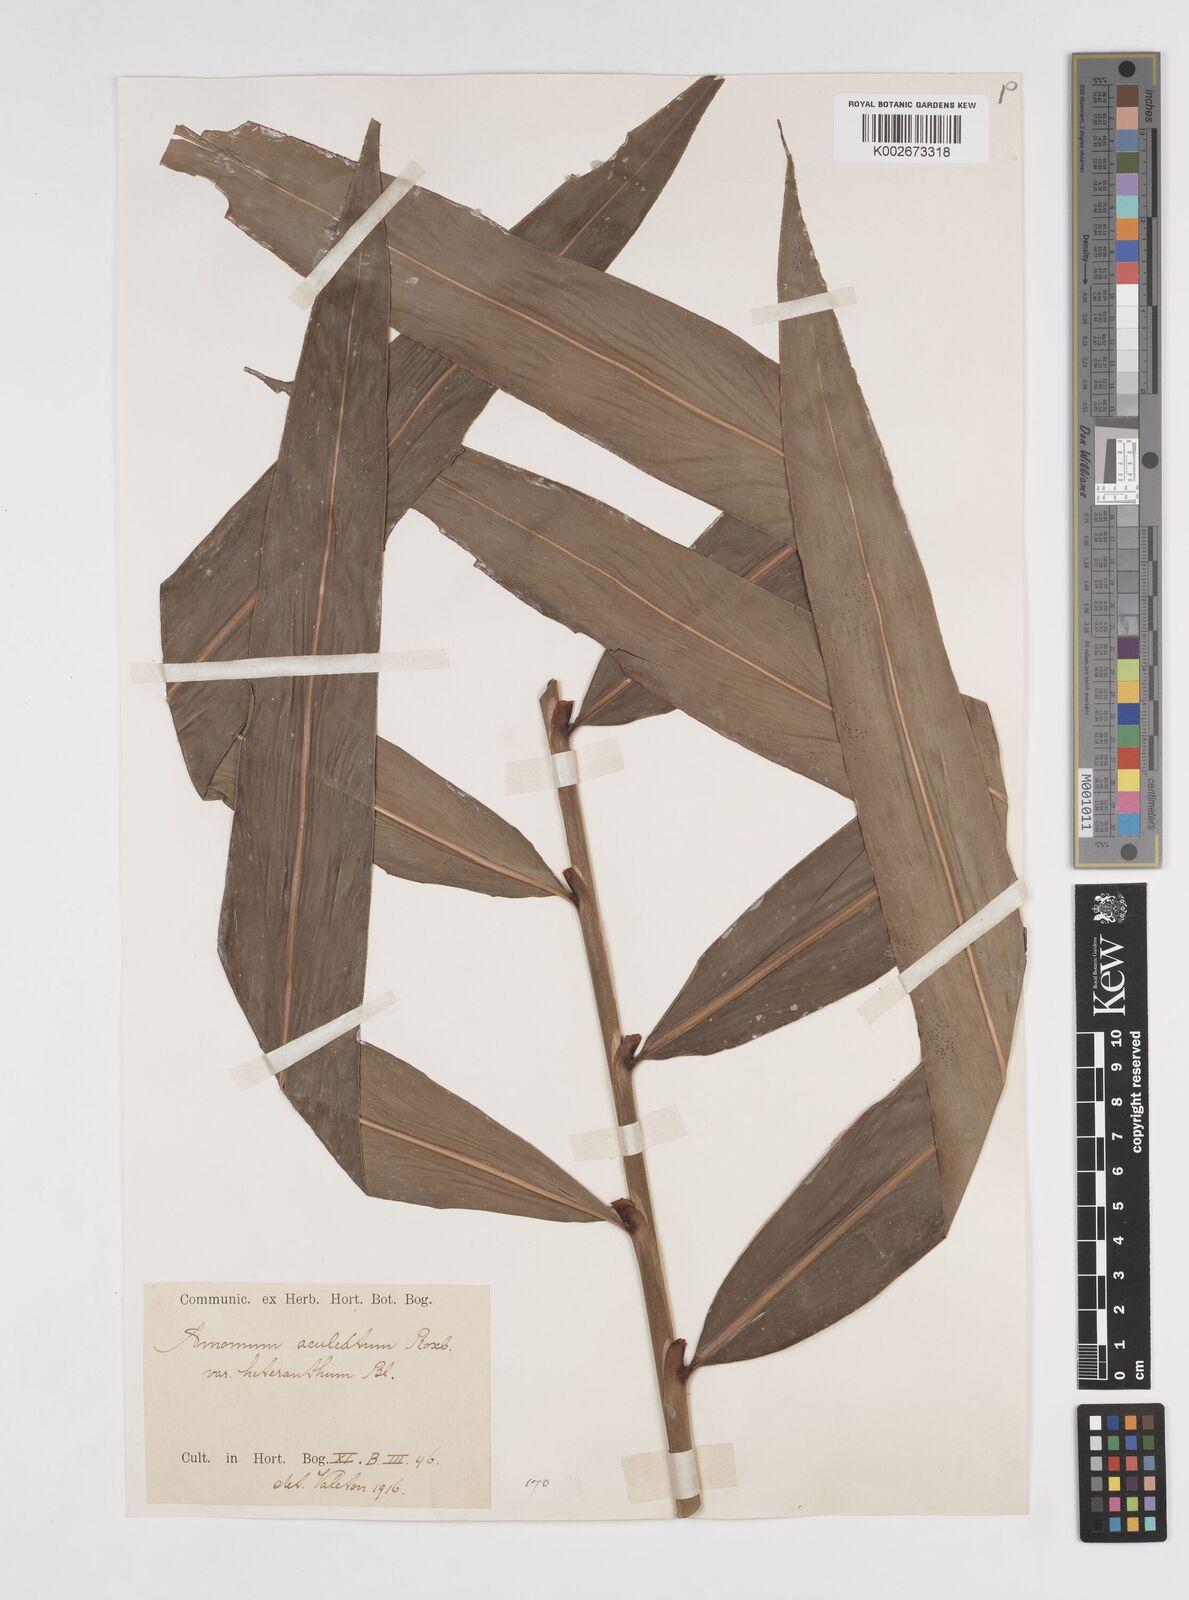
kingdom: Plantae
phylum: Tracheophyta
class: Liliopsida
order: Zingiberales
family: Zingiberaceae
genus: Meistera
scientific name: Meistera aculeata
